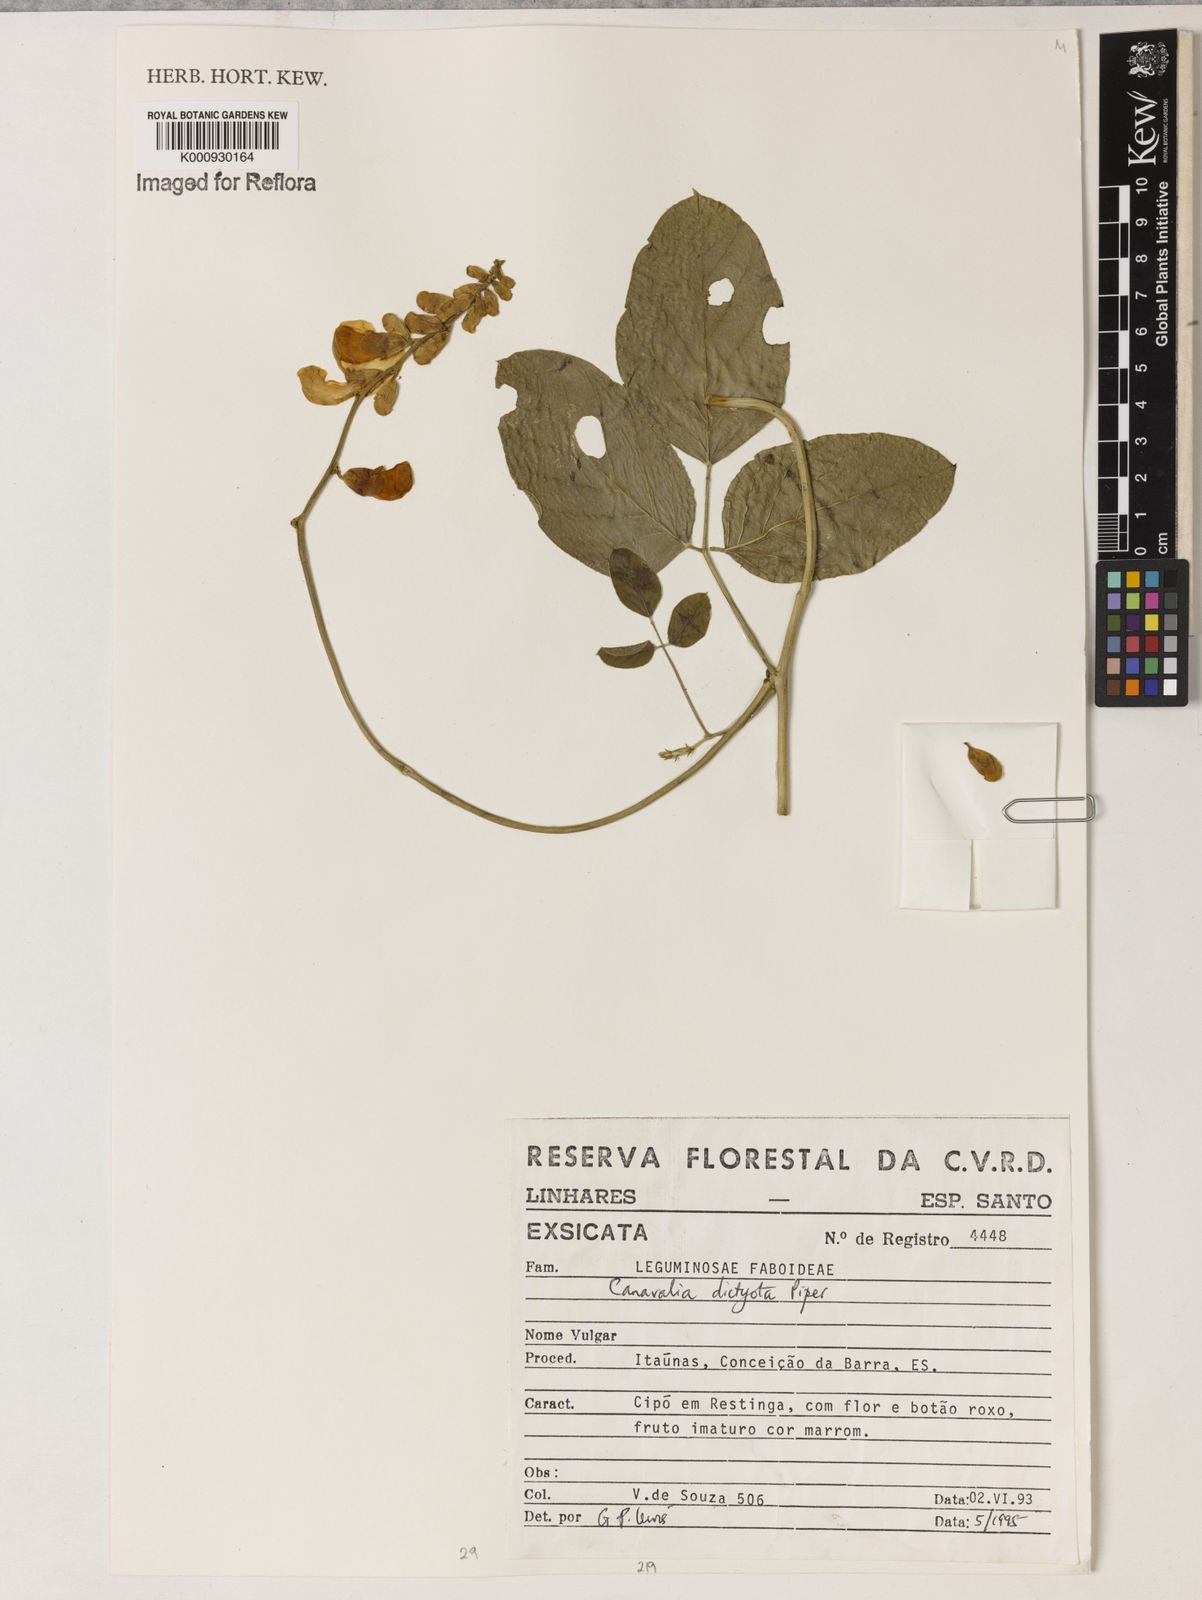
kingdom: Plantae
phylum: Tracheophyta
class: Magnoliopsida
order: Fabales
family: Fabaceae
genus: Canavalia
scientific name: Canavalia brasiliensis
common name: Barbicou-bean
